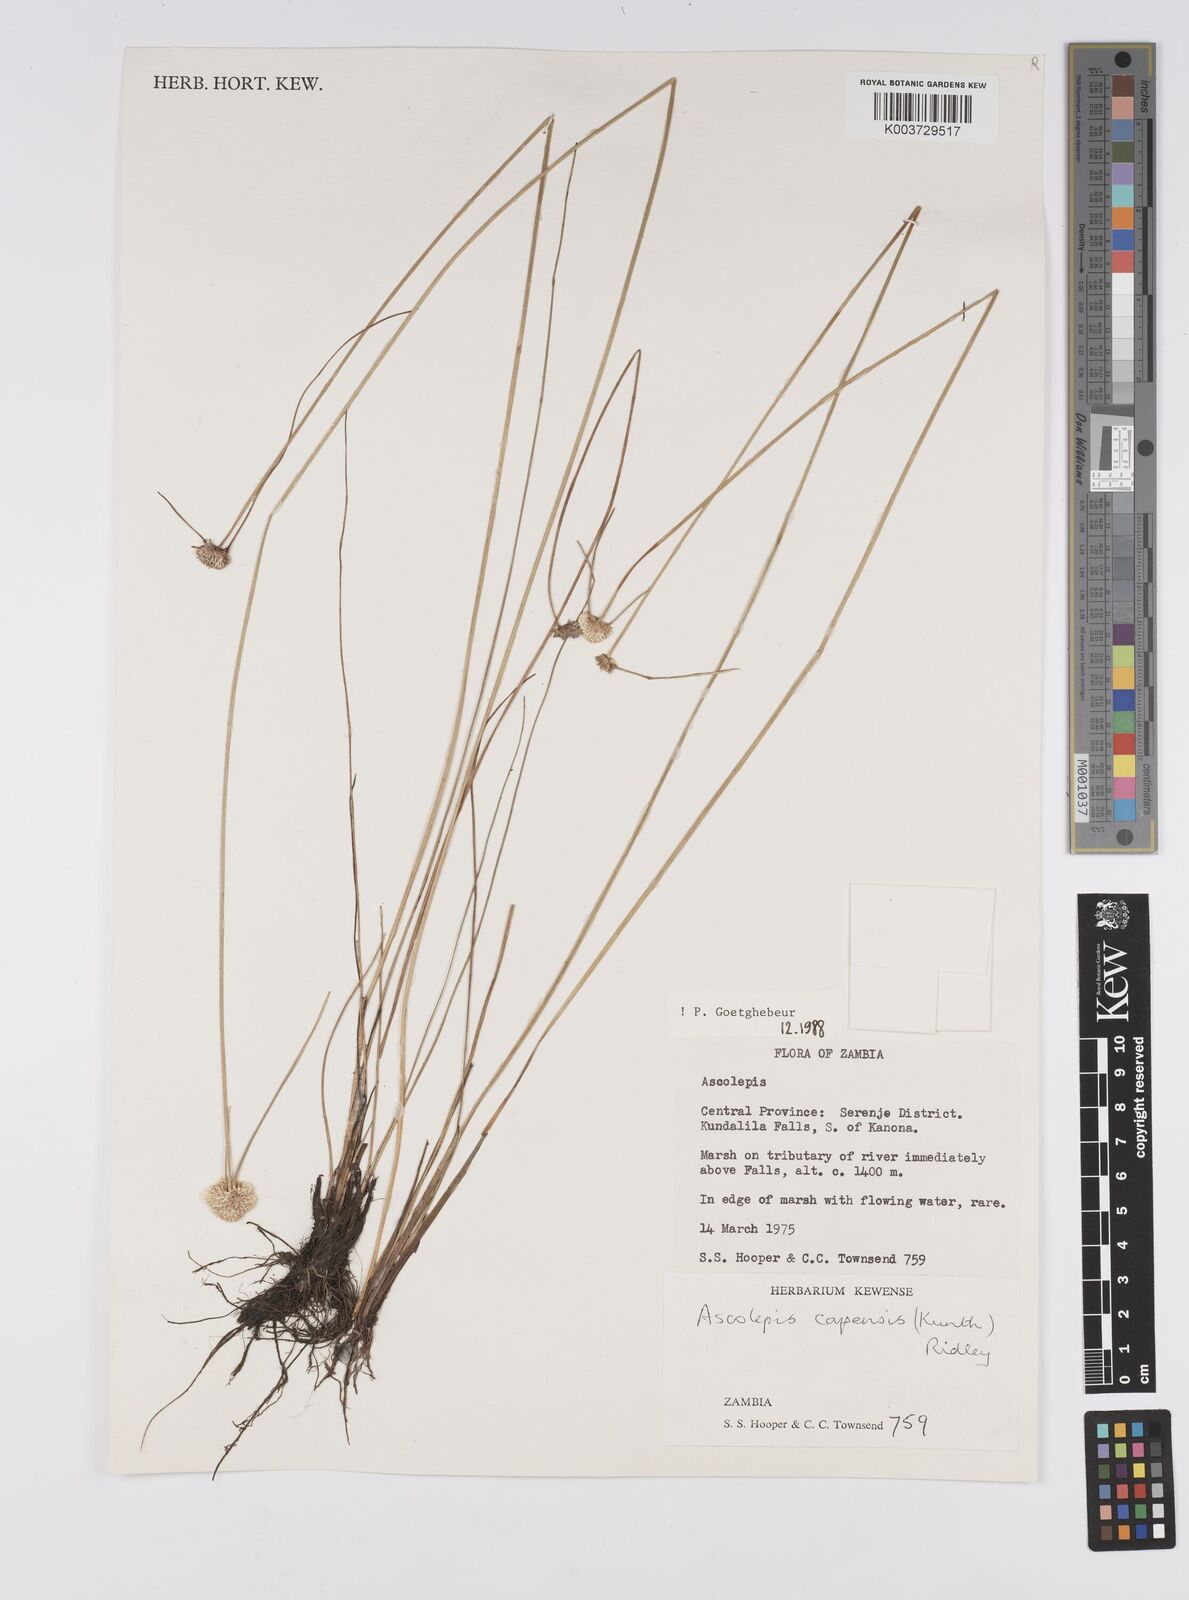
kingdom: Plantae
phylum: Tracheophyta
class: Liliopsida
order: Poales
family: Cyperaceae
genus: Cyperus
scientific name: Cyperus
